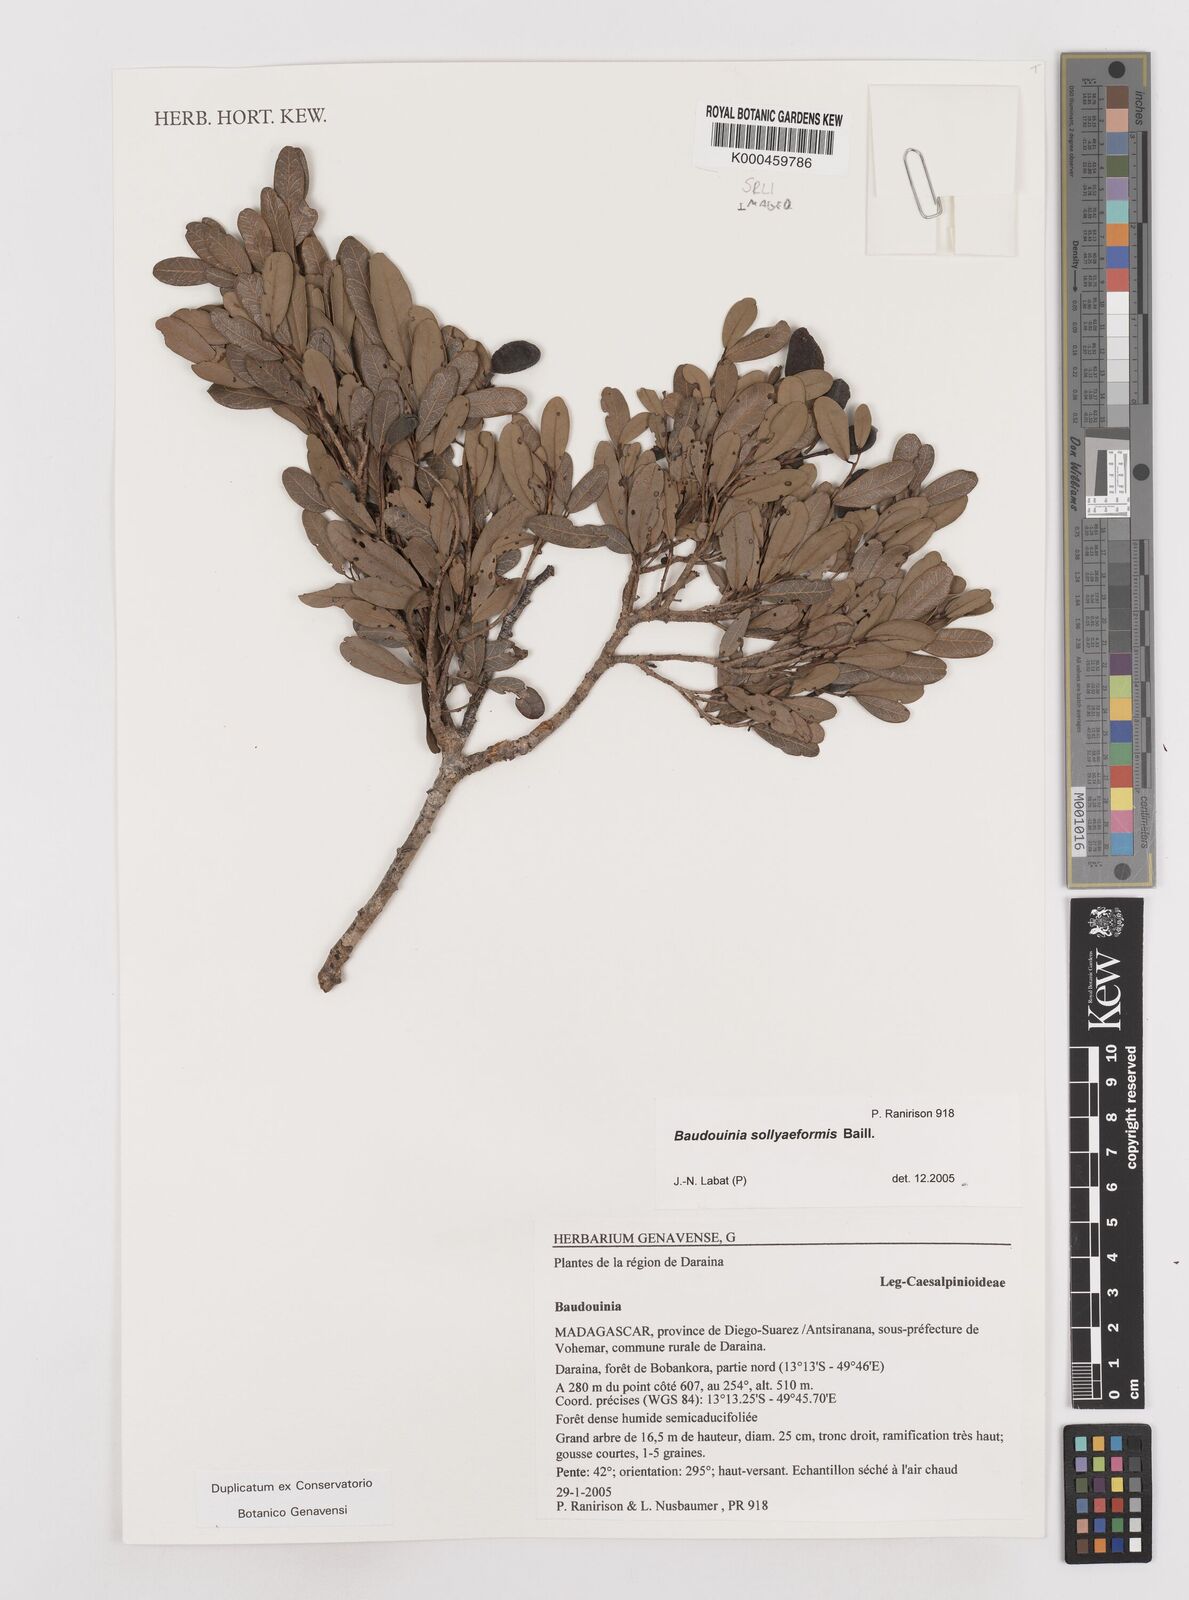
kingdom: Plantae
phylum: Tracheophyta
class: Magnoliopsida
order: Fabales
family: Fabaceae
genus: Baudouinia
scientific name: Baudouinia sollyiformis
